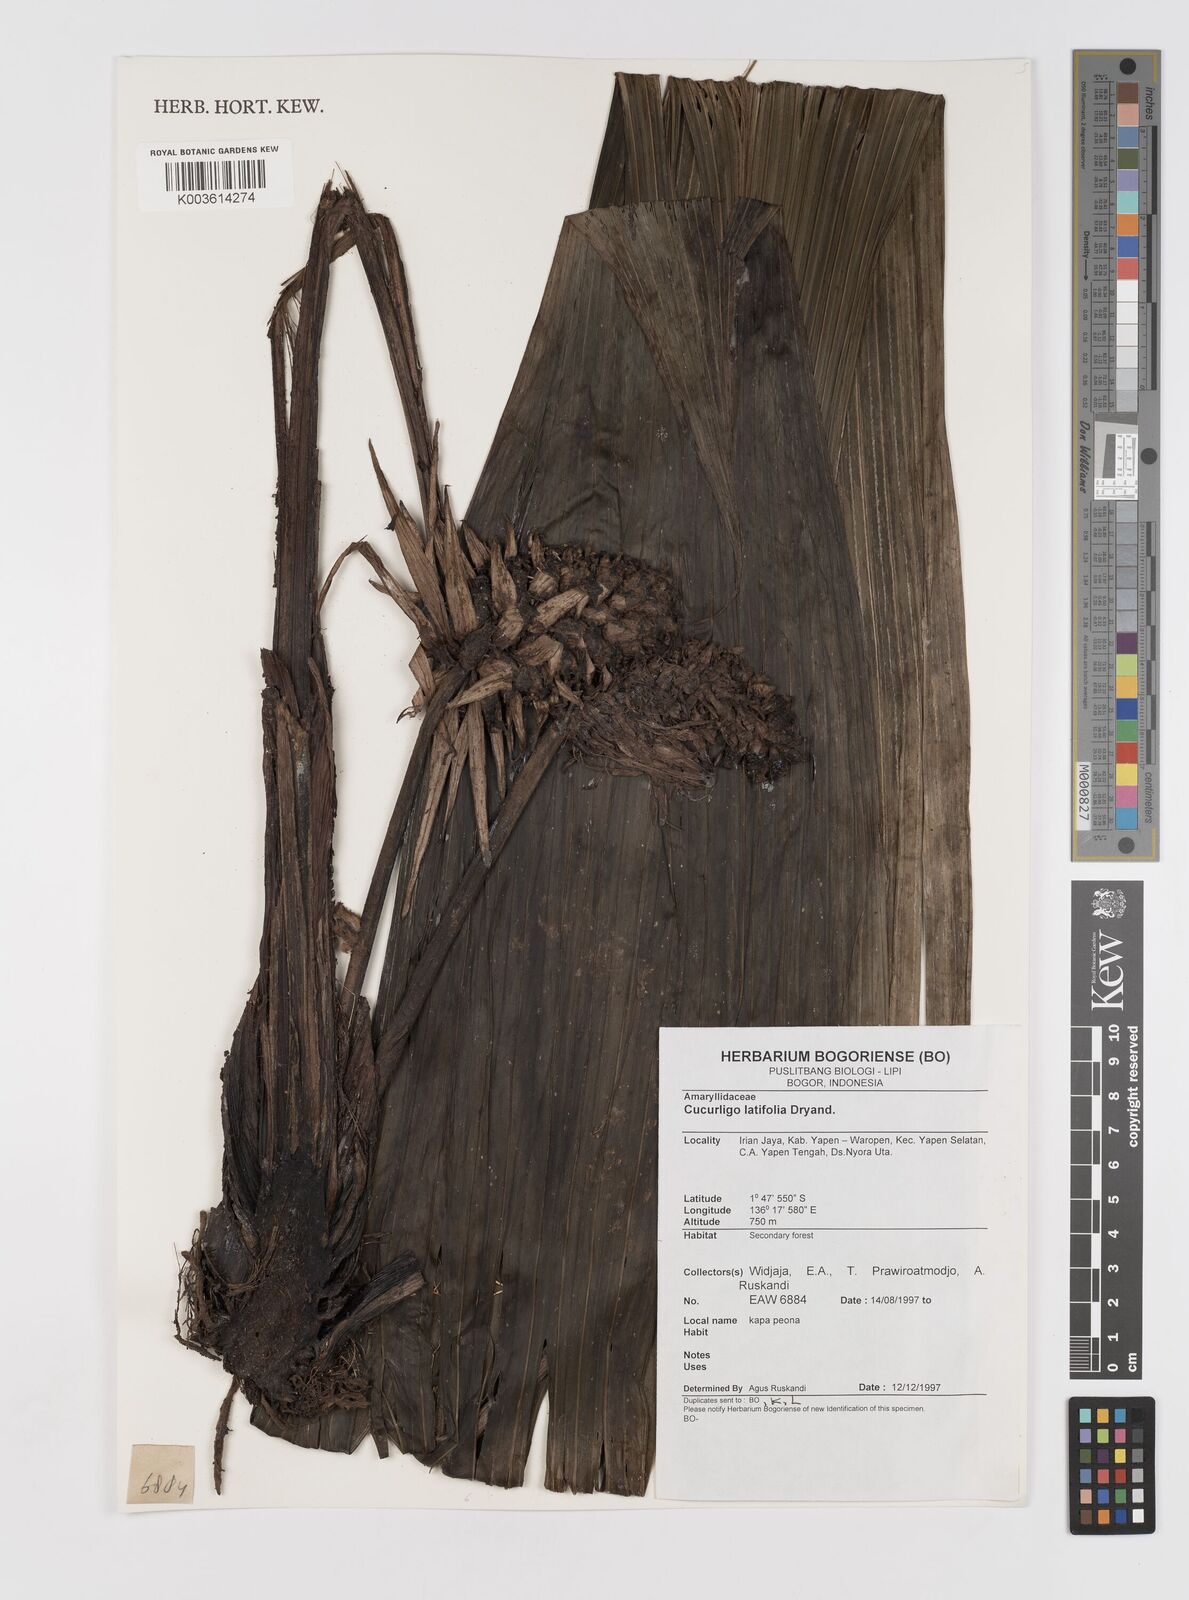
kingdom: Plantae
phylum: Tracheophyta
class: Liliopsida
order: Asparagales
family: Hypoxidaceae
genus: Curculigo
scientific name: Curculigo latifolia
